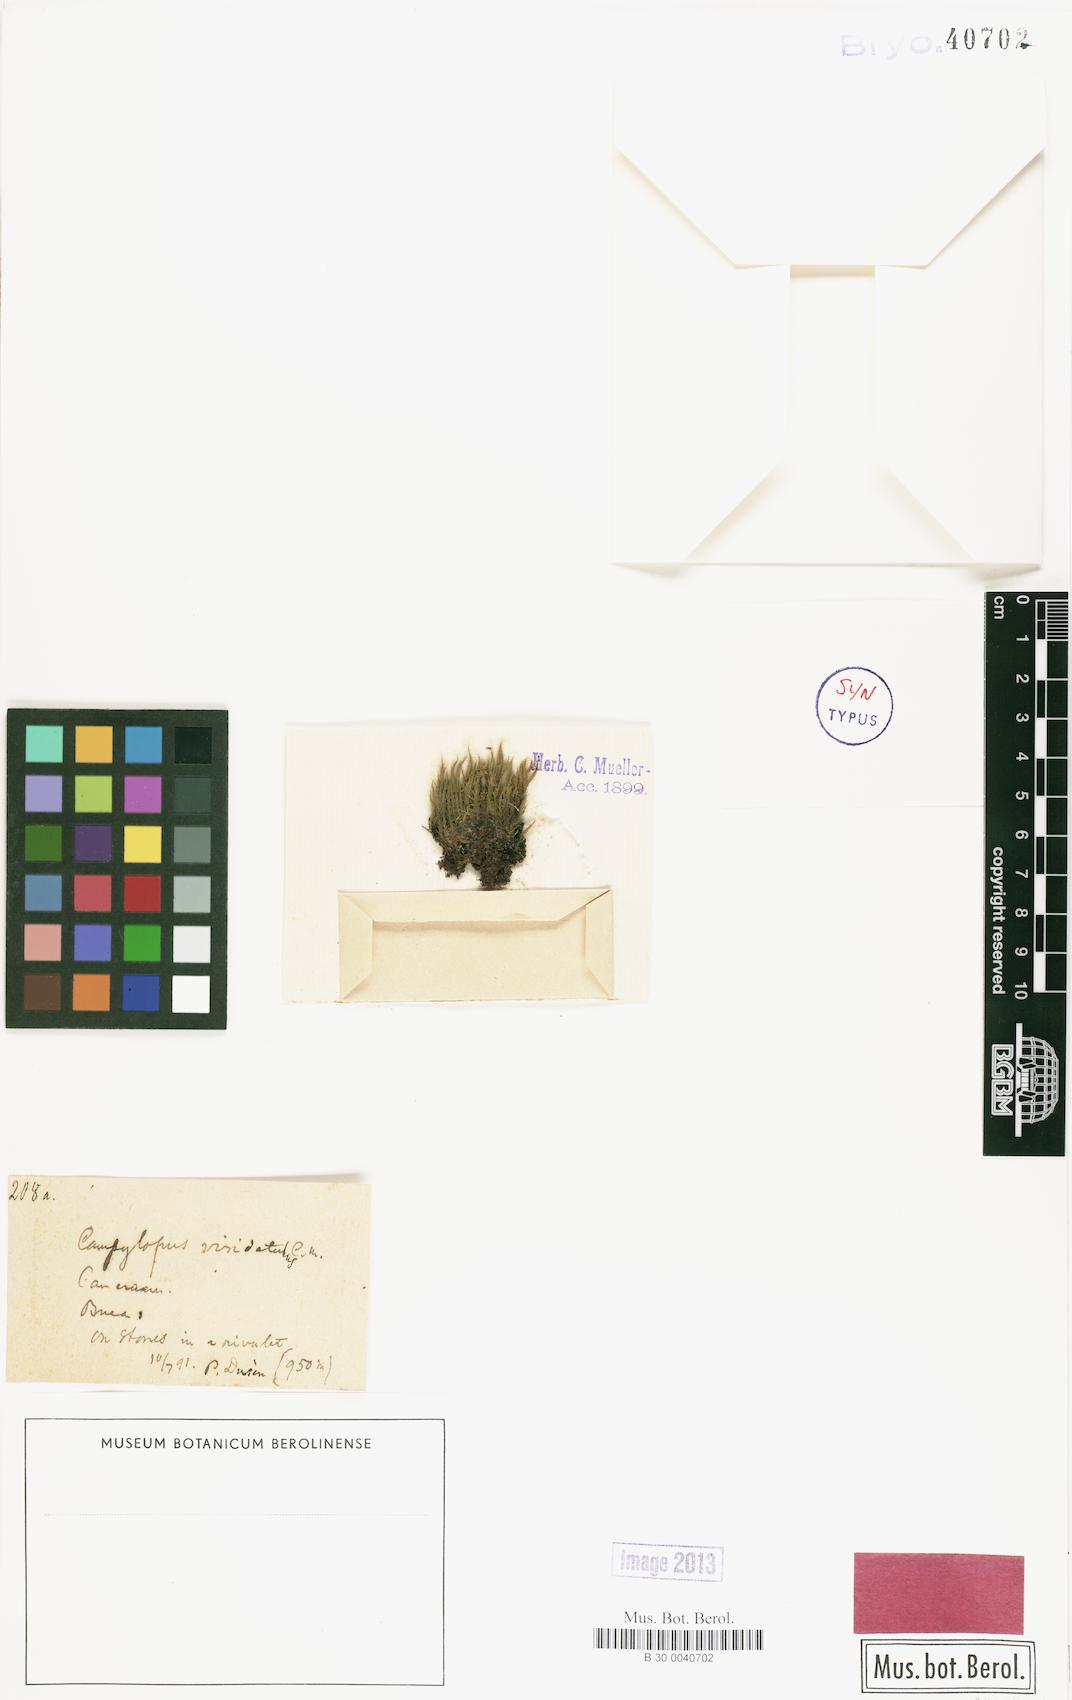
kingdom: Plantae
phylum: Bryophyta
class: Bryopsida
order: Dicranales
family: Leucobryaceae
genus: Campylopus
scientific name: Campylopus savannarum
